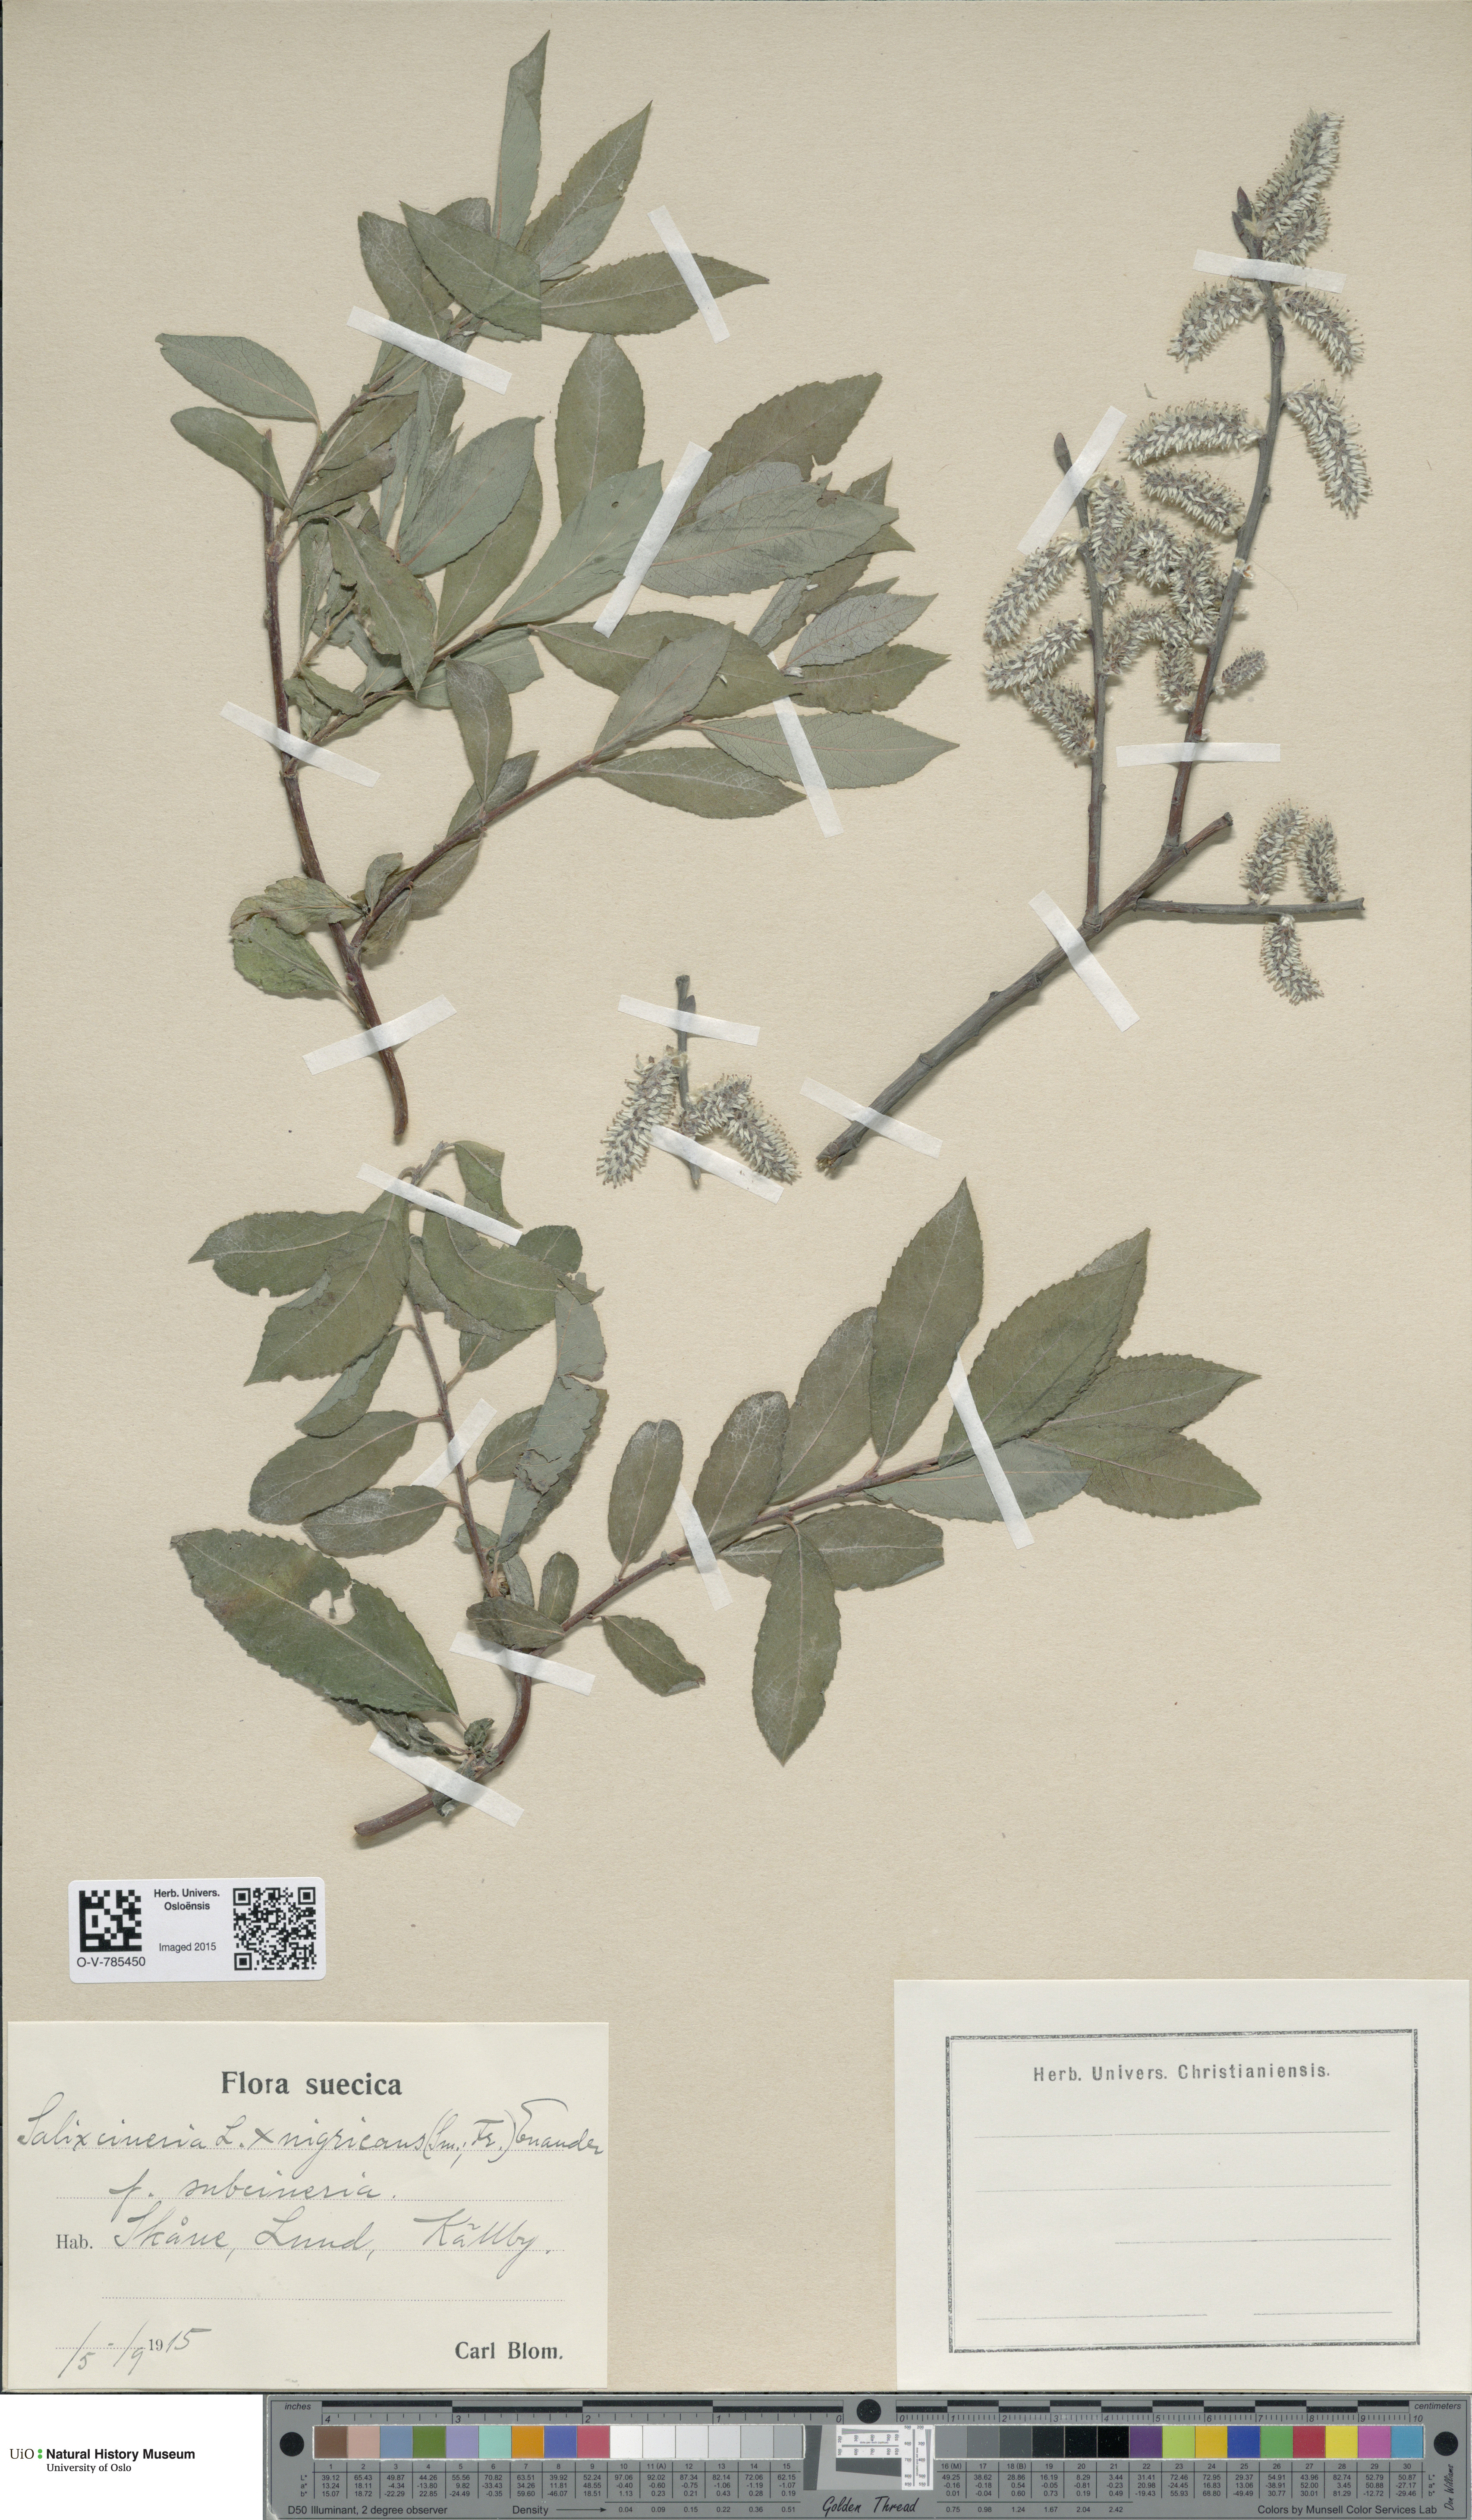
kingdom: Plantae
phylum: Tracheophyta
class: Magnoliopsida
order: Malpighiales
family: Salicaceae
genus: Salix
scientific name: Salix
